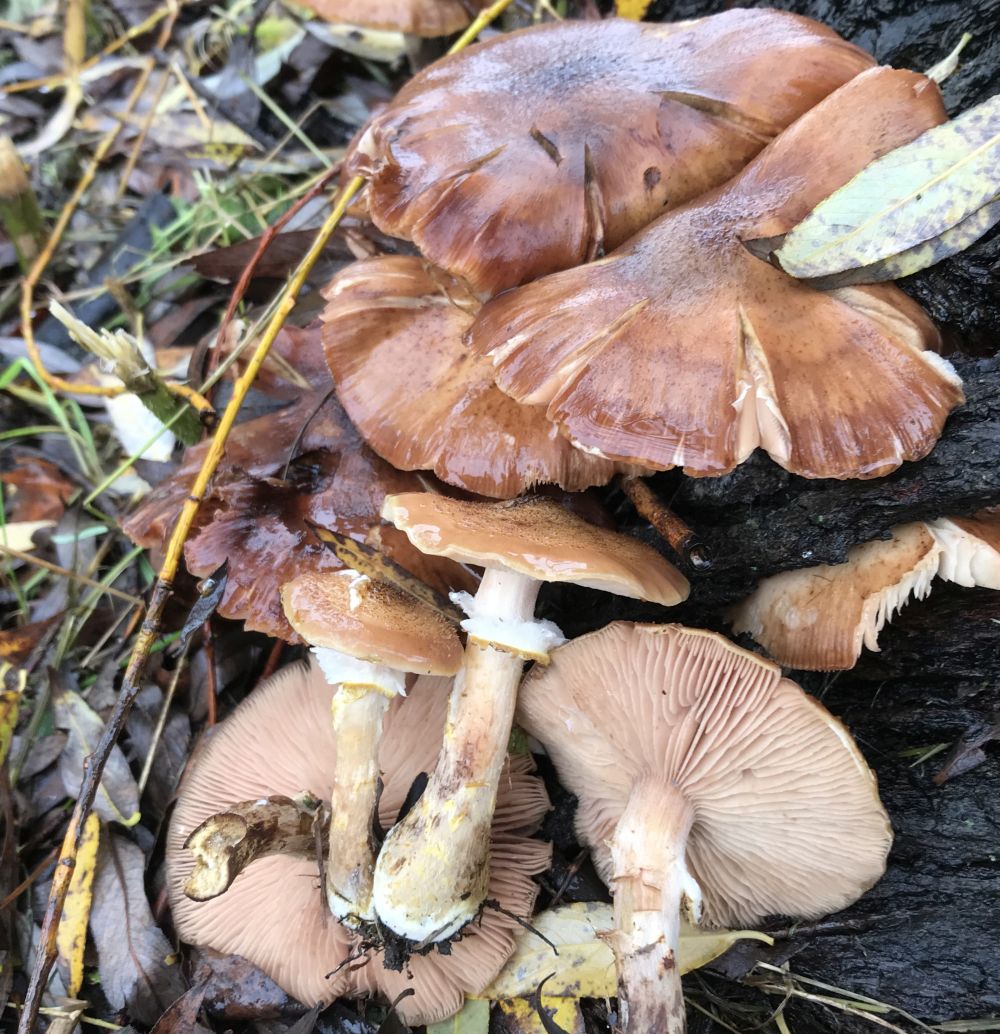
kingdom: Fungi
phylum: Basidiomycota
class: Agaricomycetes
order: Agaricales
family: Physalacriaceae
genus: Armillaria
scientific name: Armillaria lutea
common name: køllestokket honningsvamp
